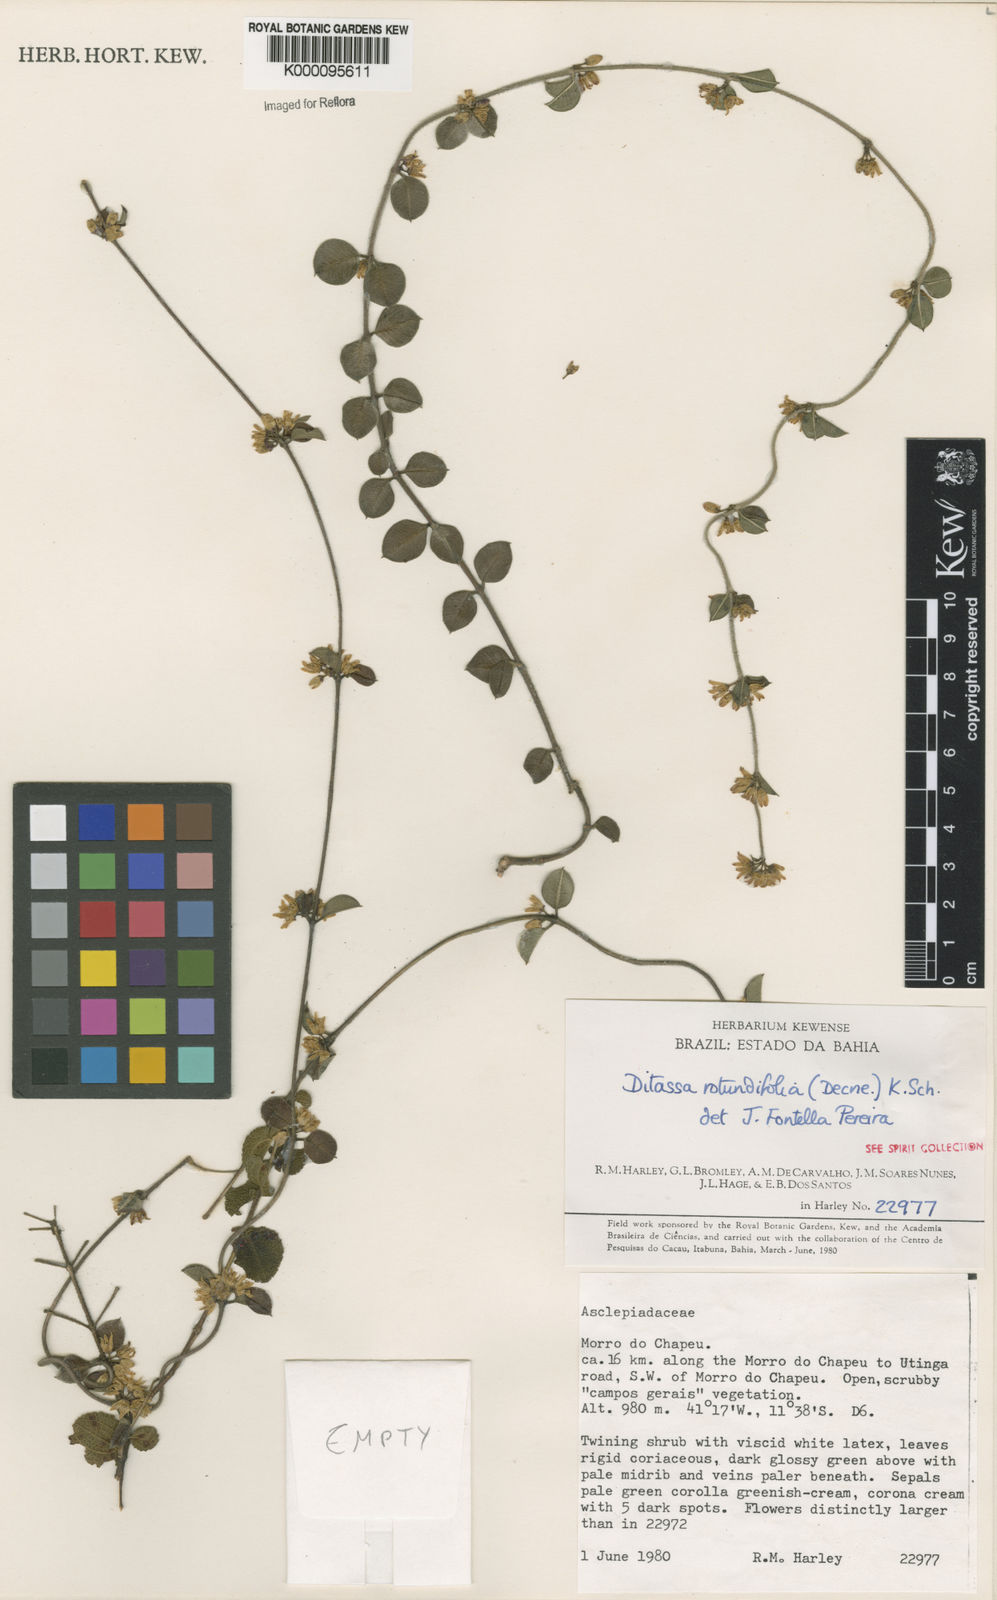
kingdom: Plantae
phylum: Tracheophyta
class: Magnoliopsida
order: Gentianales
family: Apocynaceae
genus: Ditassa
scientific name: Ditassa
